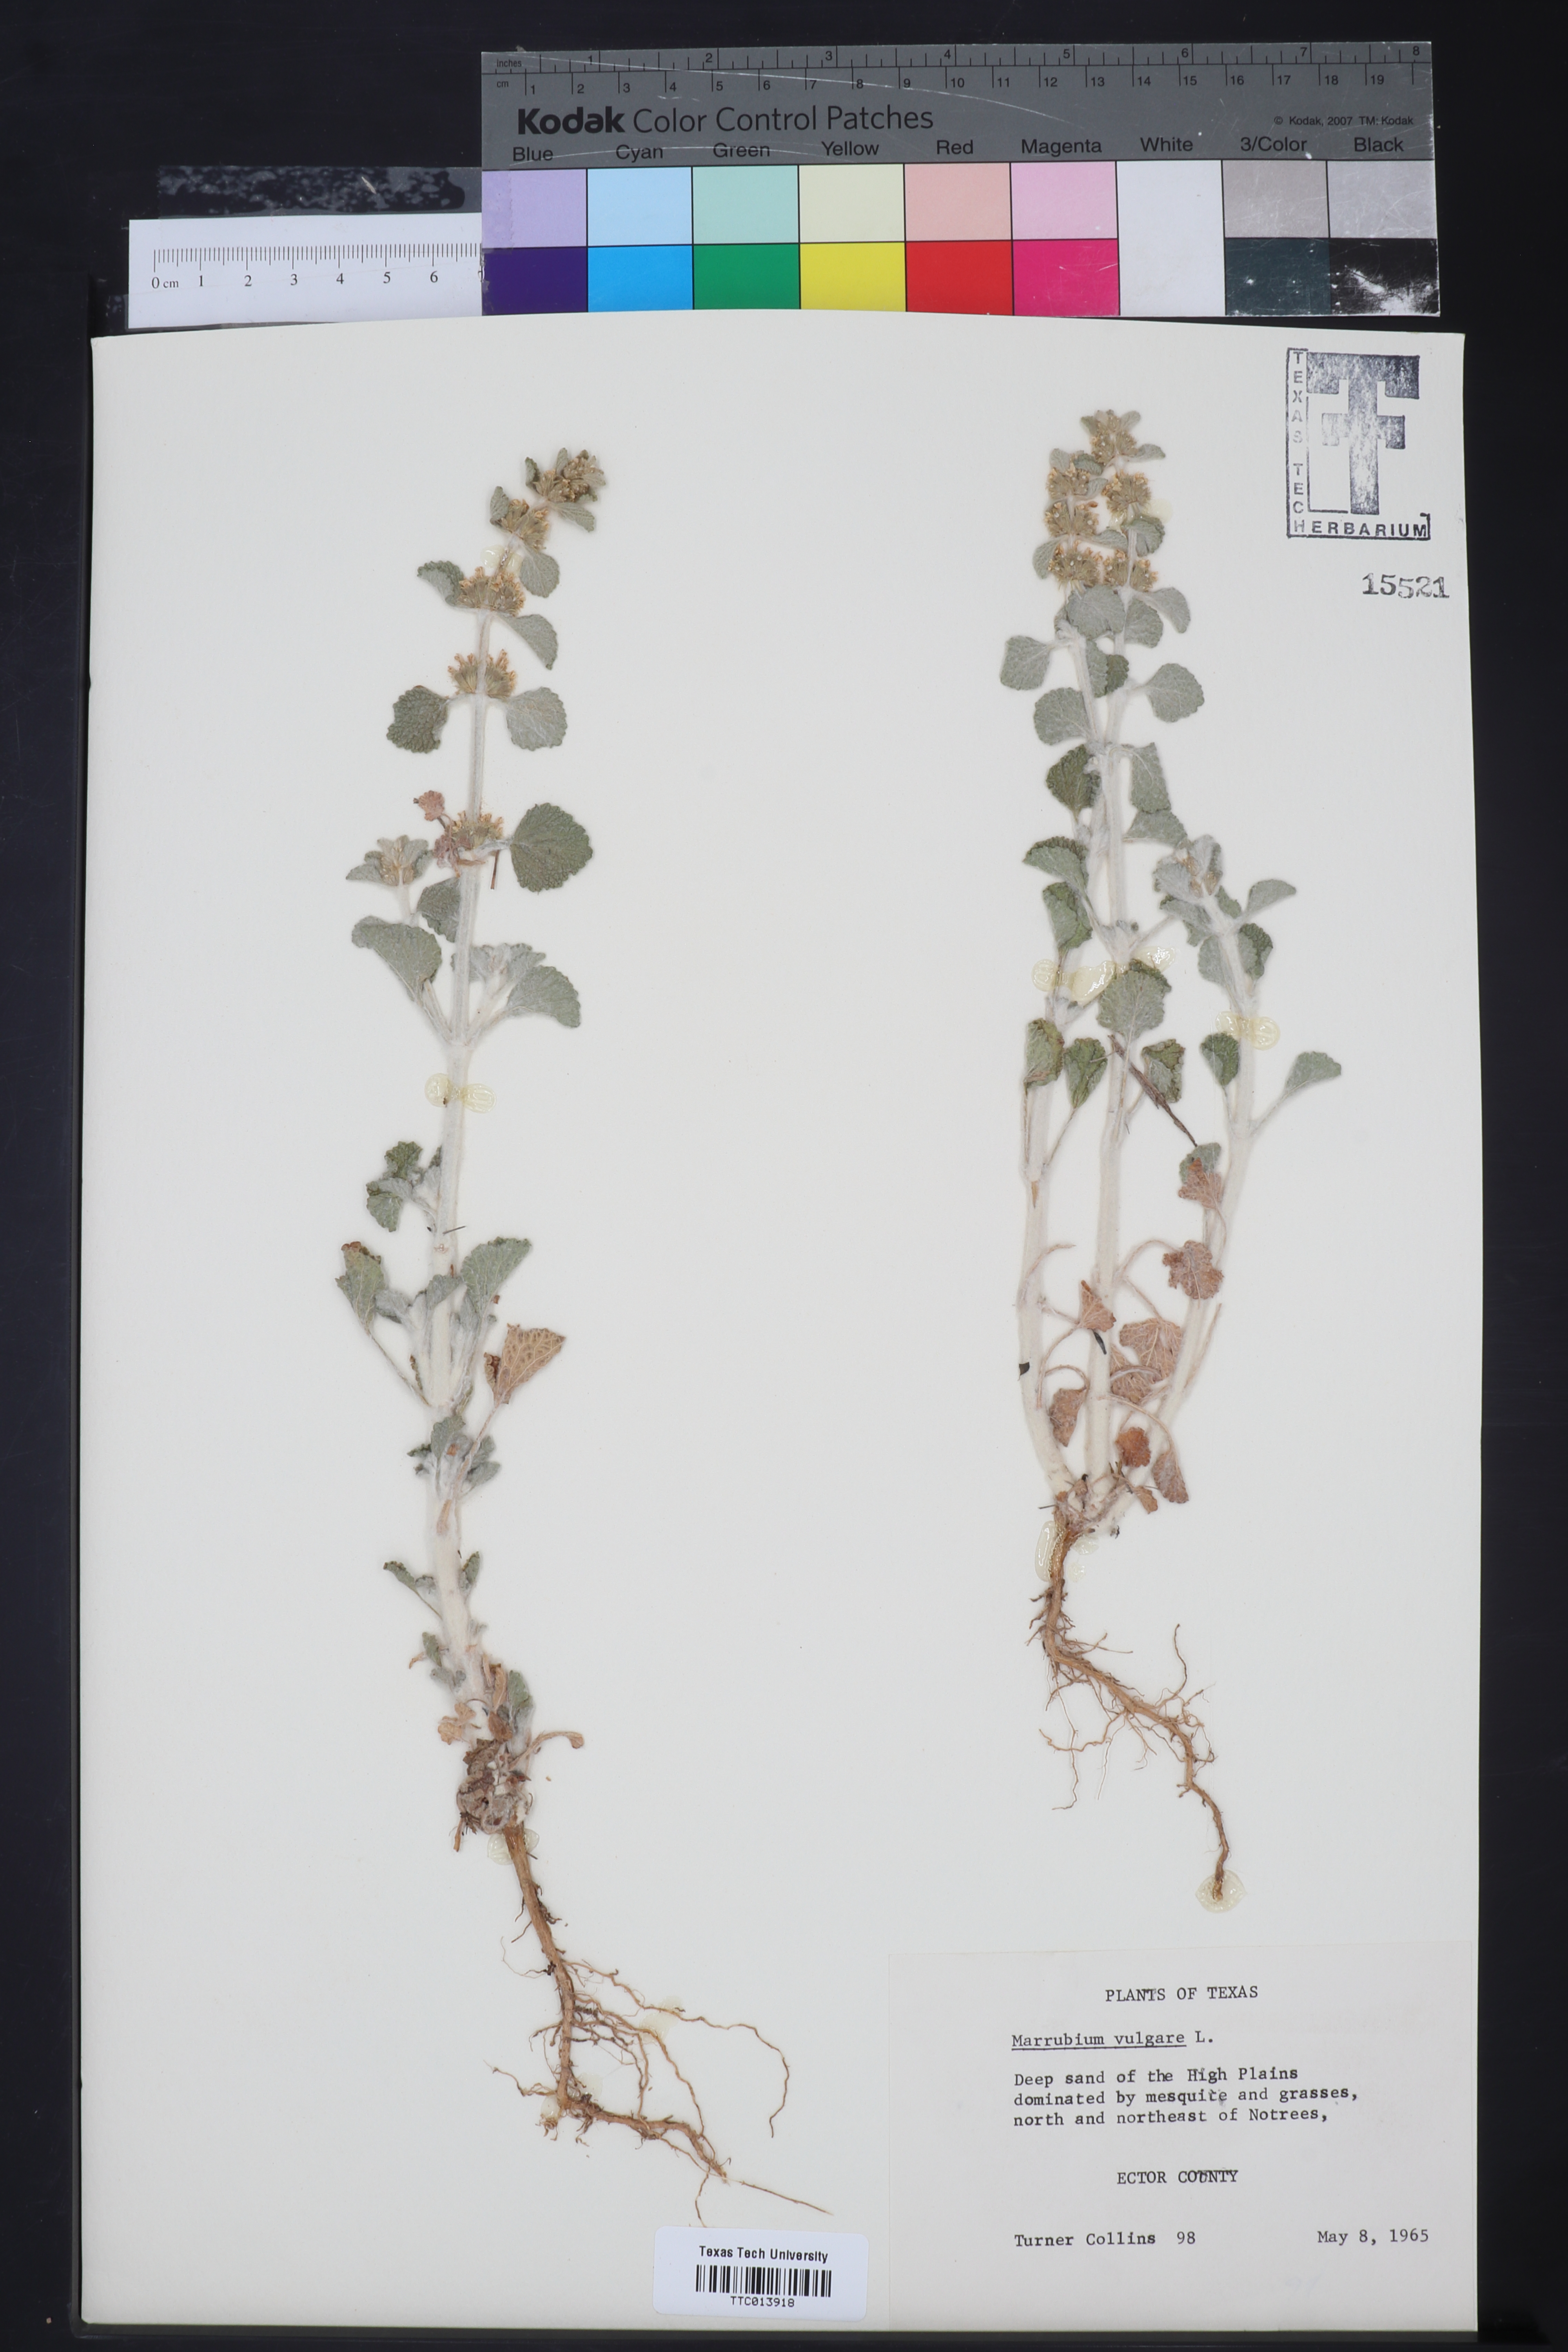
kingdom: Plantae
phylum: Tracheophyta
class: Magnoliopsida
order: Lamiales
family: Lamiaceae
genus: Marrubium
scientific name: Marrubium vulgare
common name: Horehound
